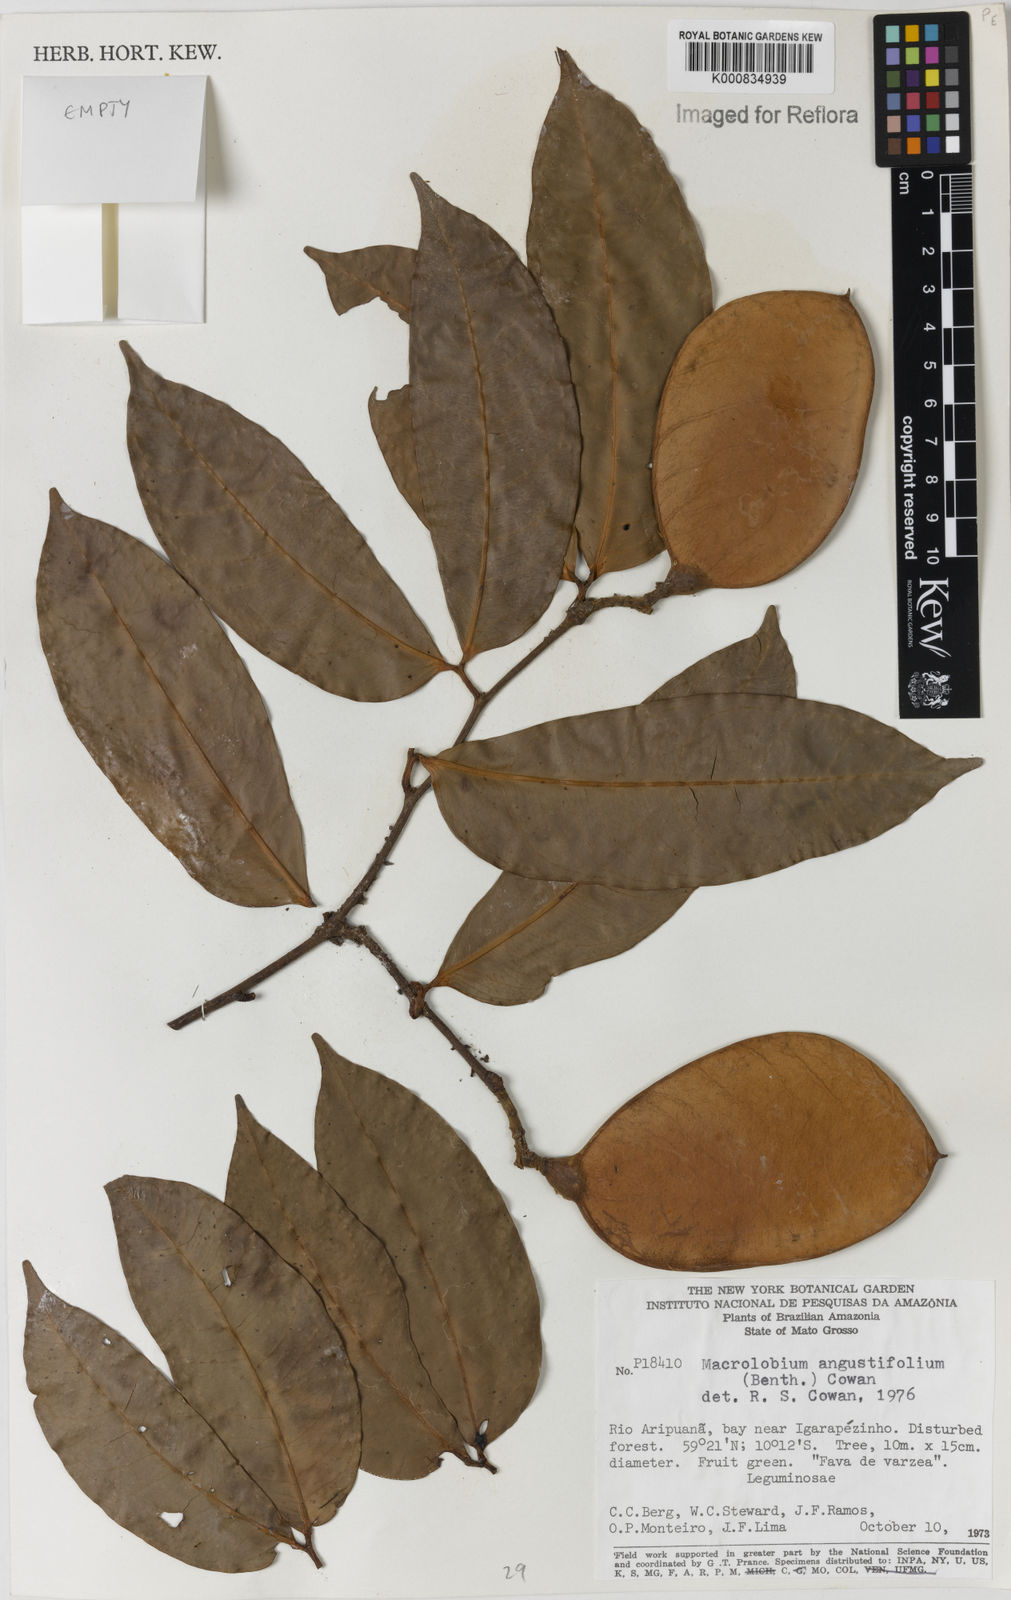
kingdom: Plantae
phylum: Tracheophyta
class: Magnoliopsida
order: Fabales
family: Fabaceae
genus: Macrolobium
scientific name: Macrolobium angustifolium
